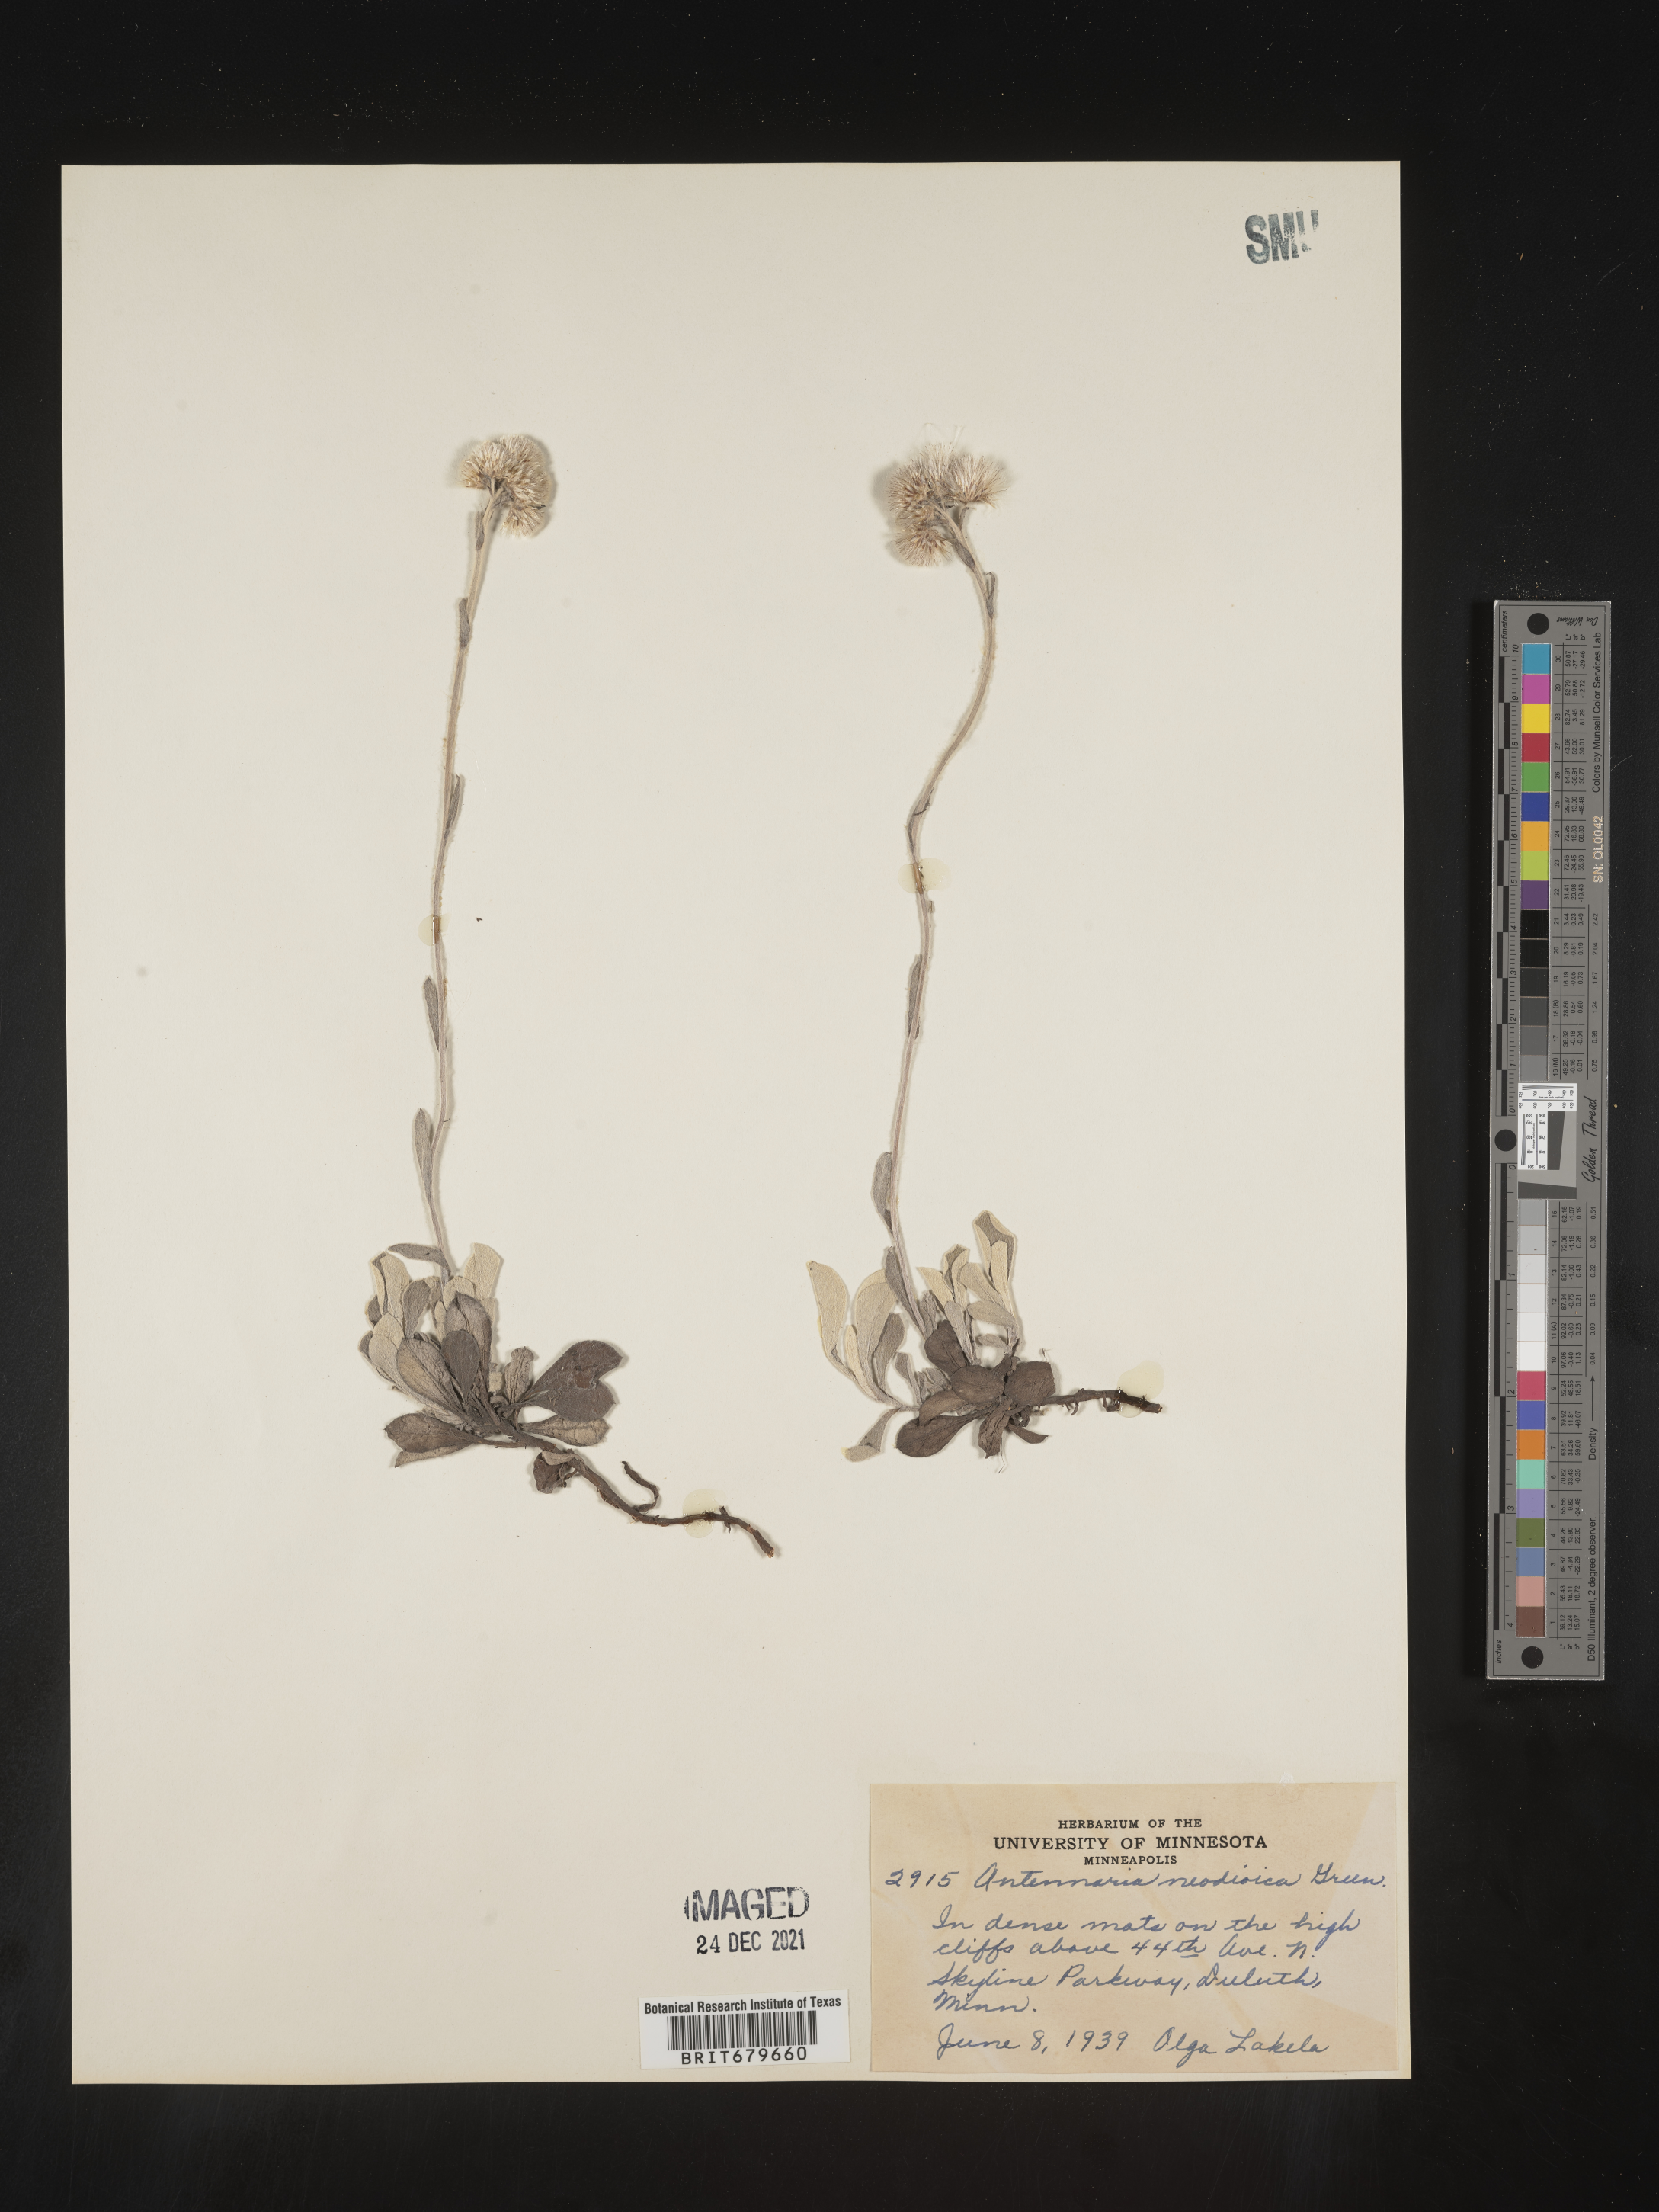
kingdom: Plantae
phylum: Tracheophyta
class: Magnoliopsida
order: Asterales
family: Asteraceae
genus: Antennaria
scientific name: Antennaria howellii
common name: Howell's pussytoes
